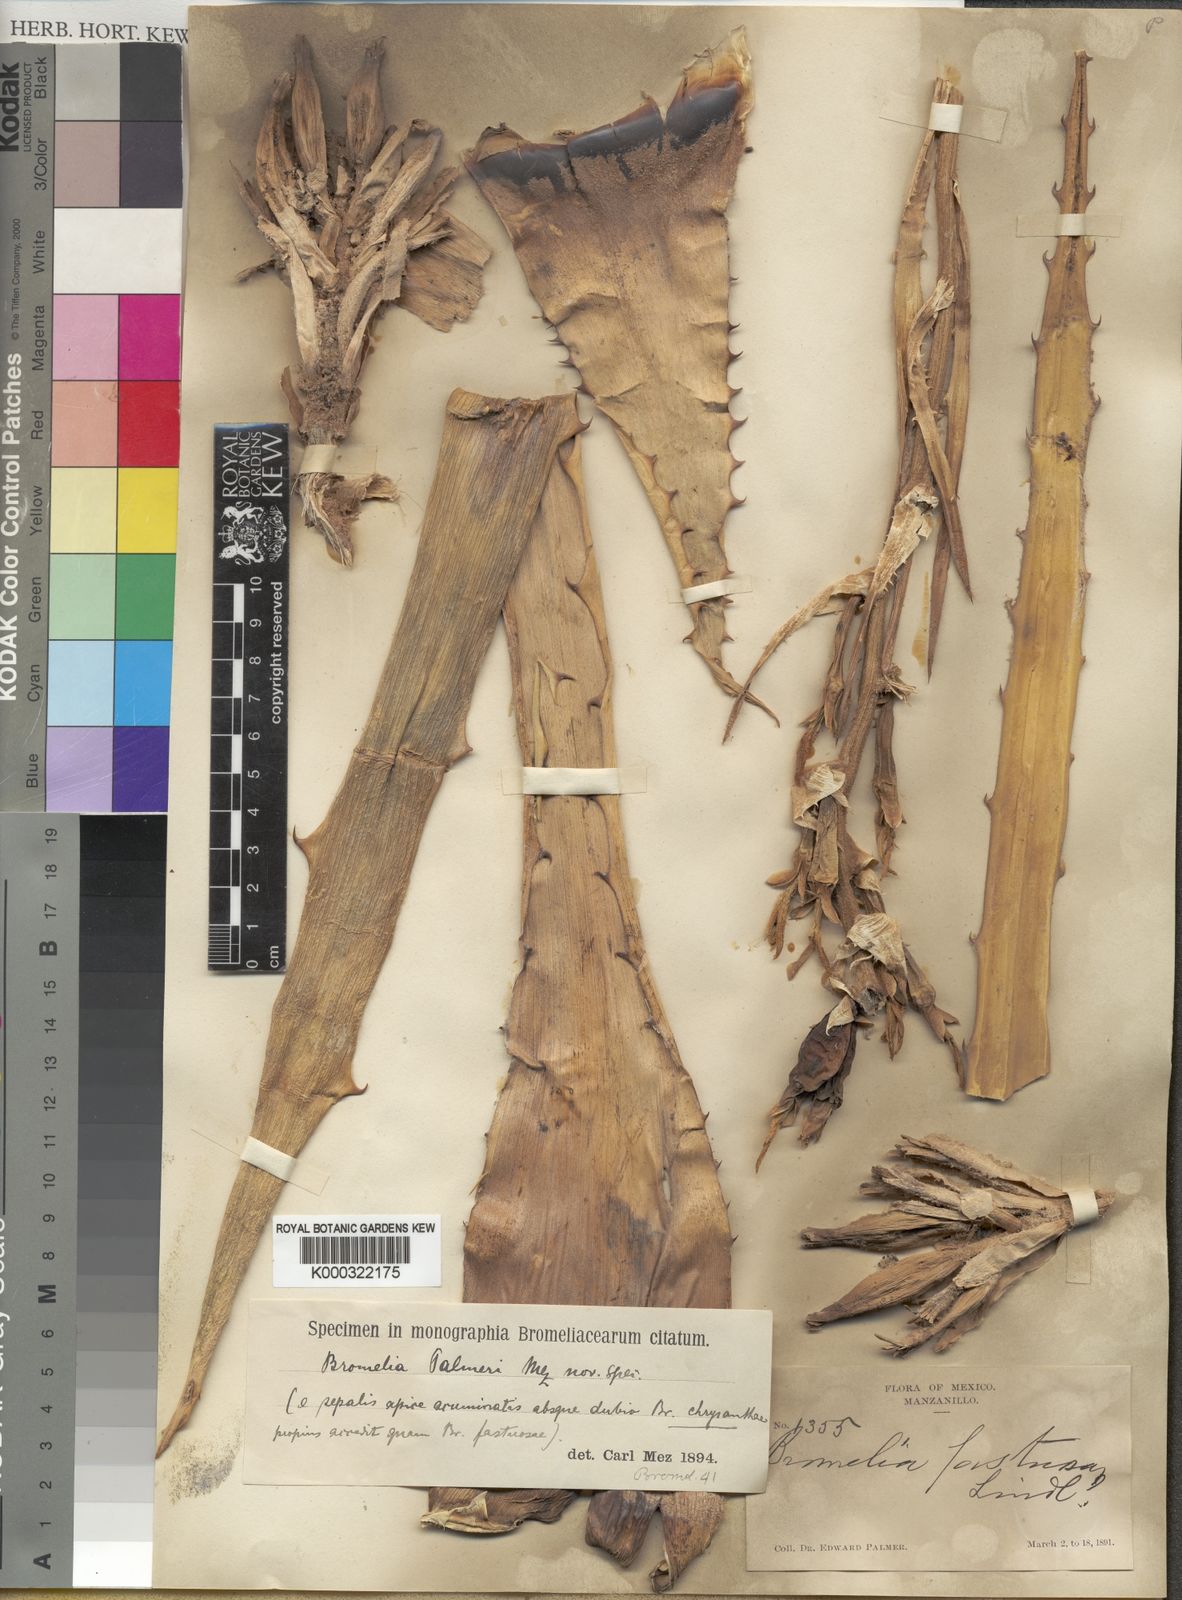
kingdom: Plantae
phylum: Tracheophyta
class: Liliopsida
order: Poales
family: Bromeliaceae
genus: Bromelia
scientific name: Bromelia palmeri
